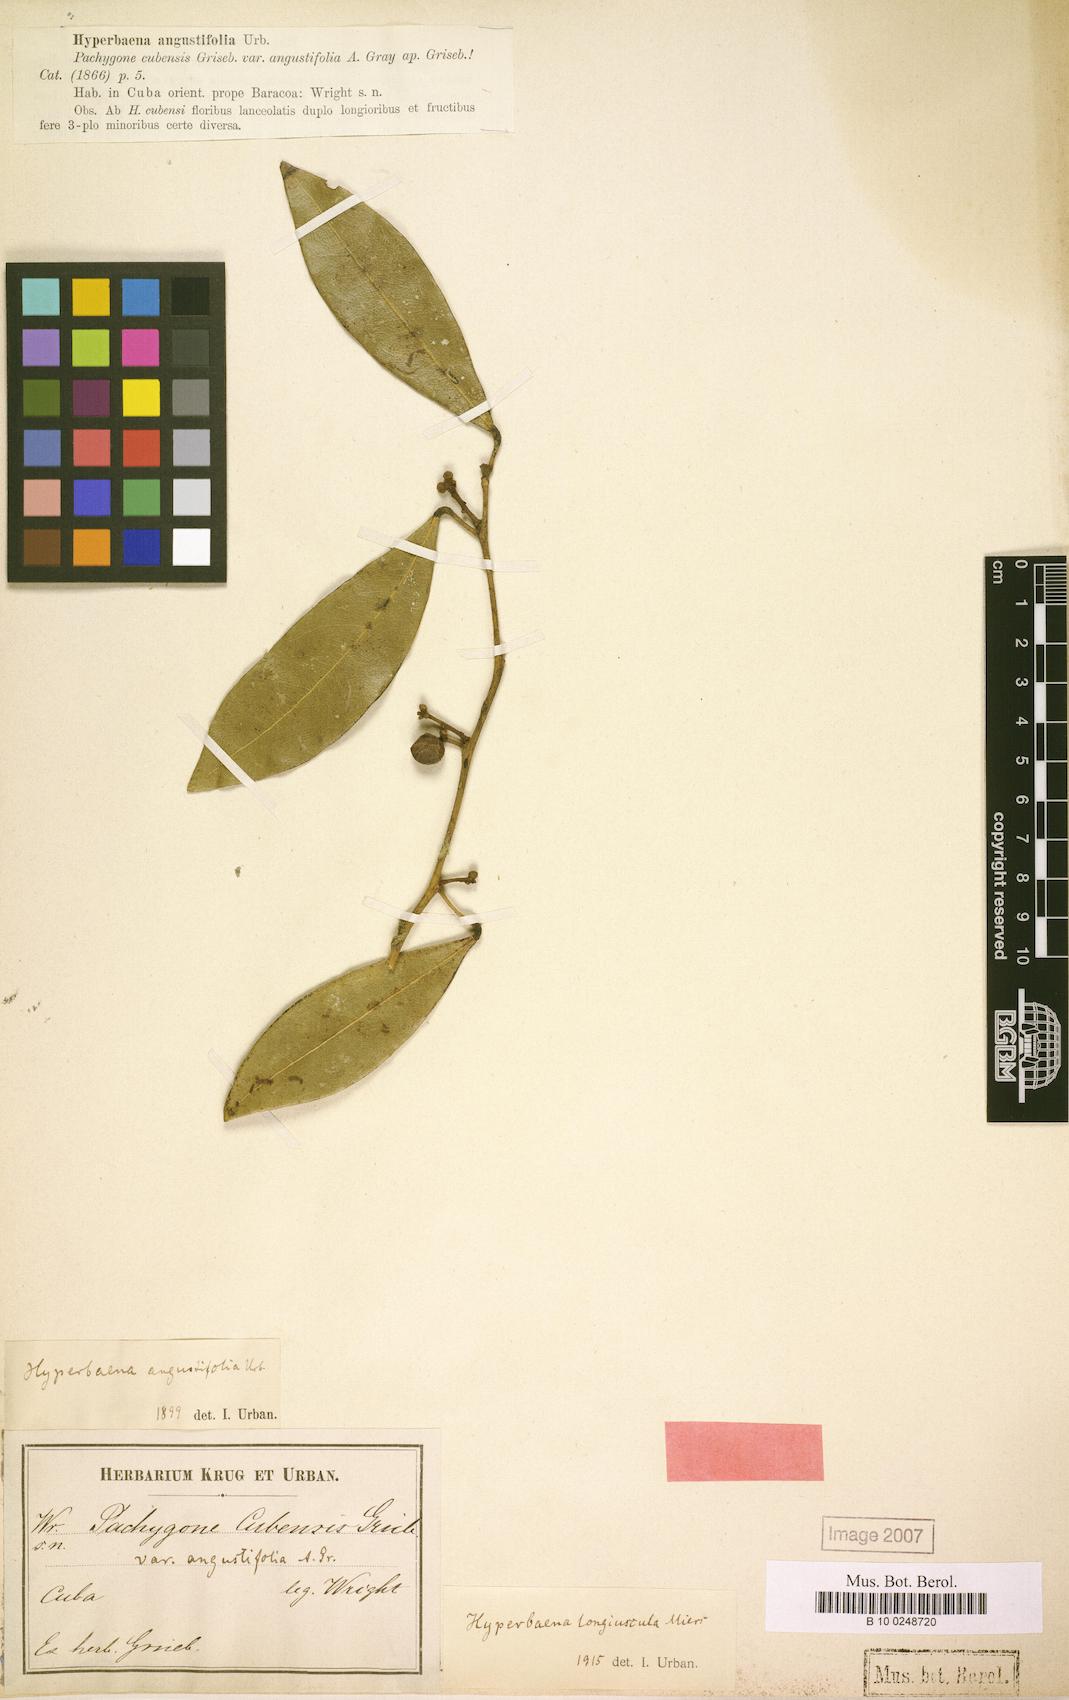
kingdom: Plantae
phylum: Tracheophyta
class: Magnoliopsida
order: Ranunculales
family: Menispermaceae
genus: Hyperbaena
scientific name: Hyperbaena axilliflora
